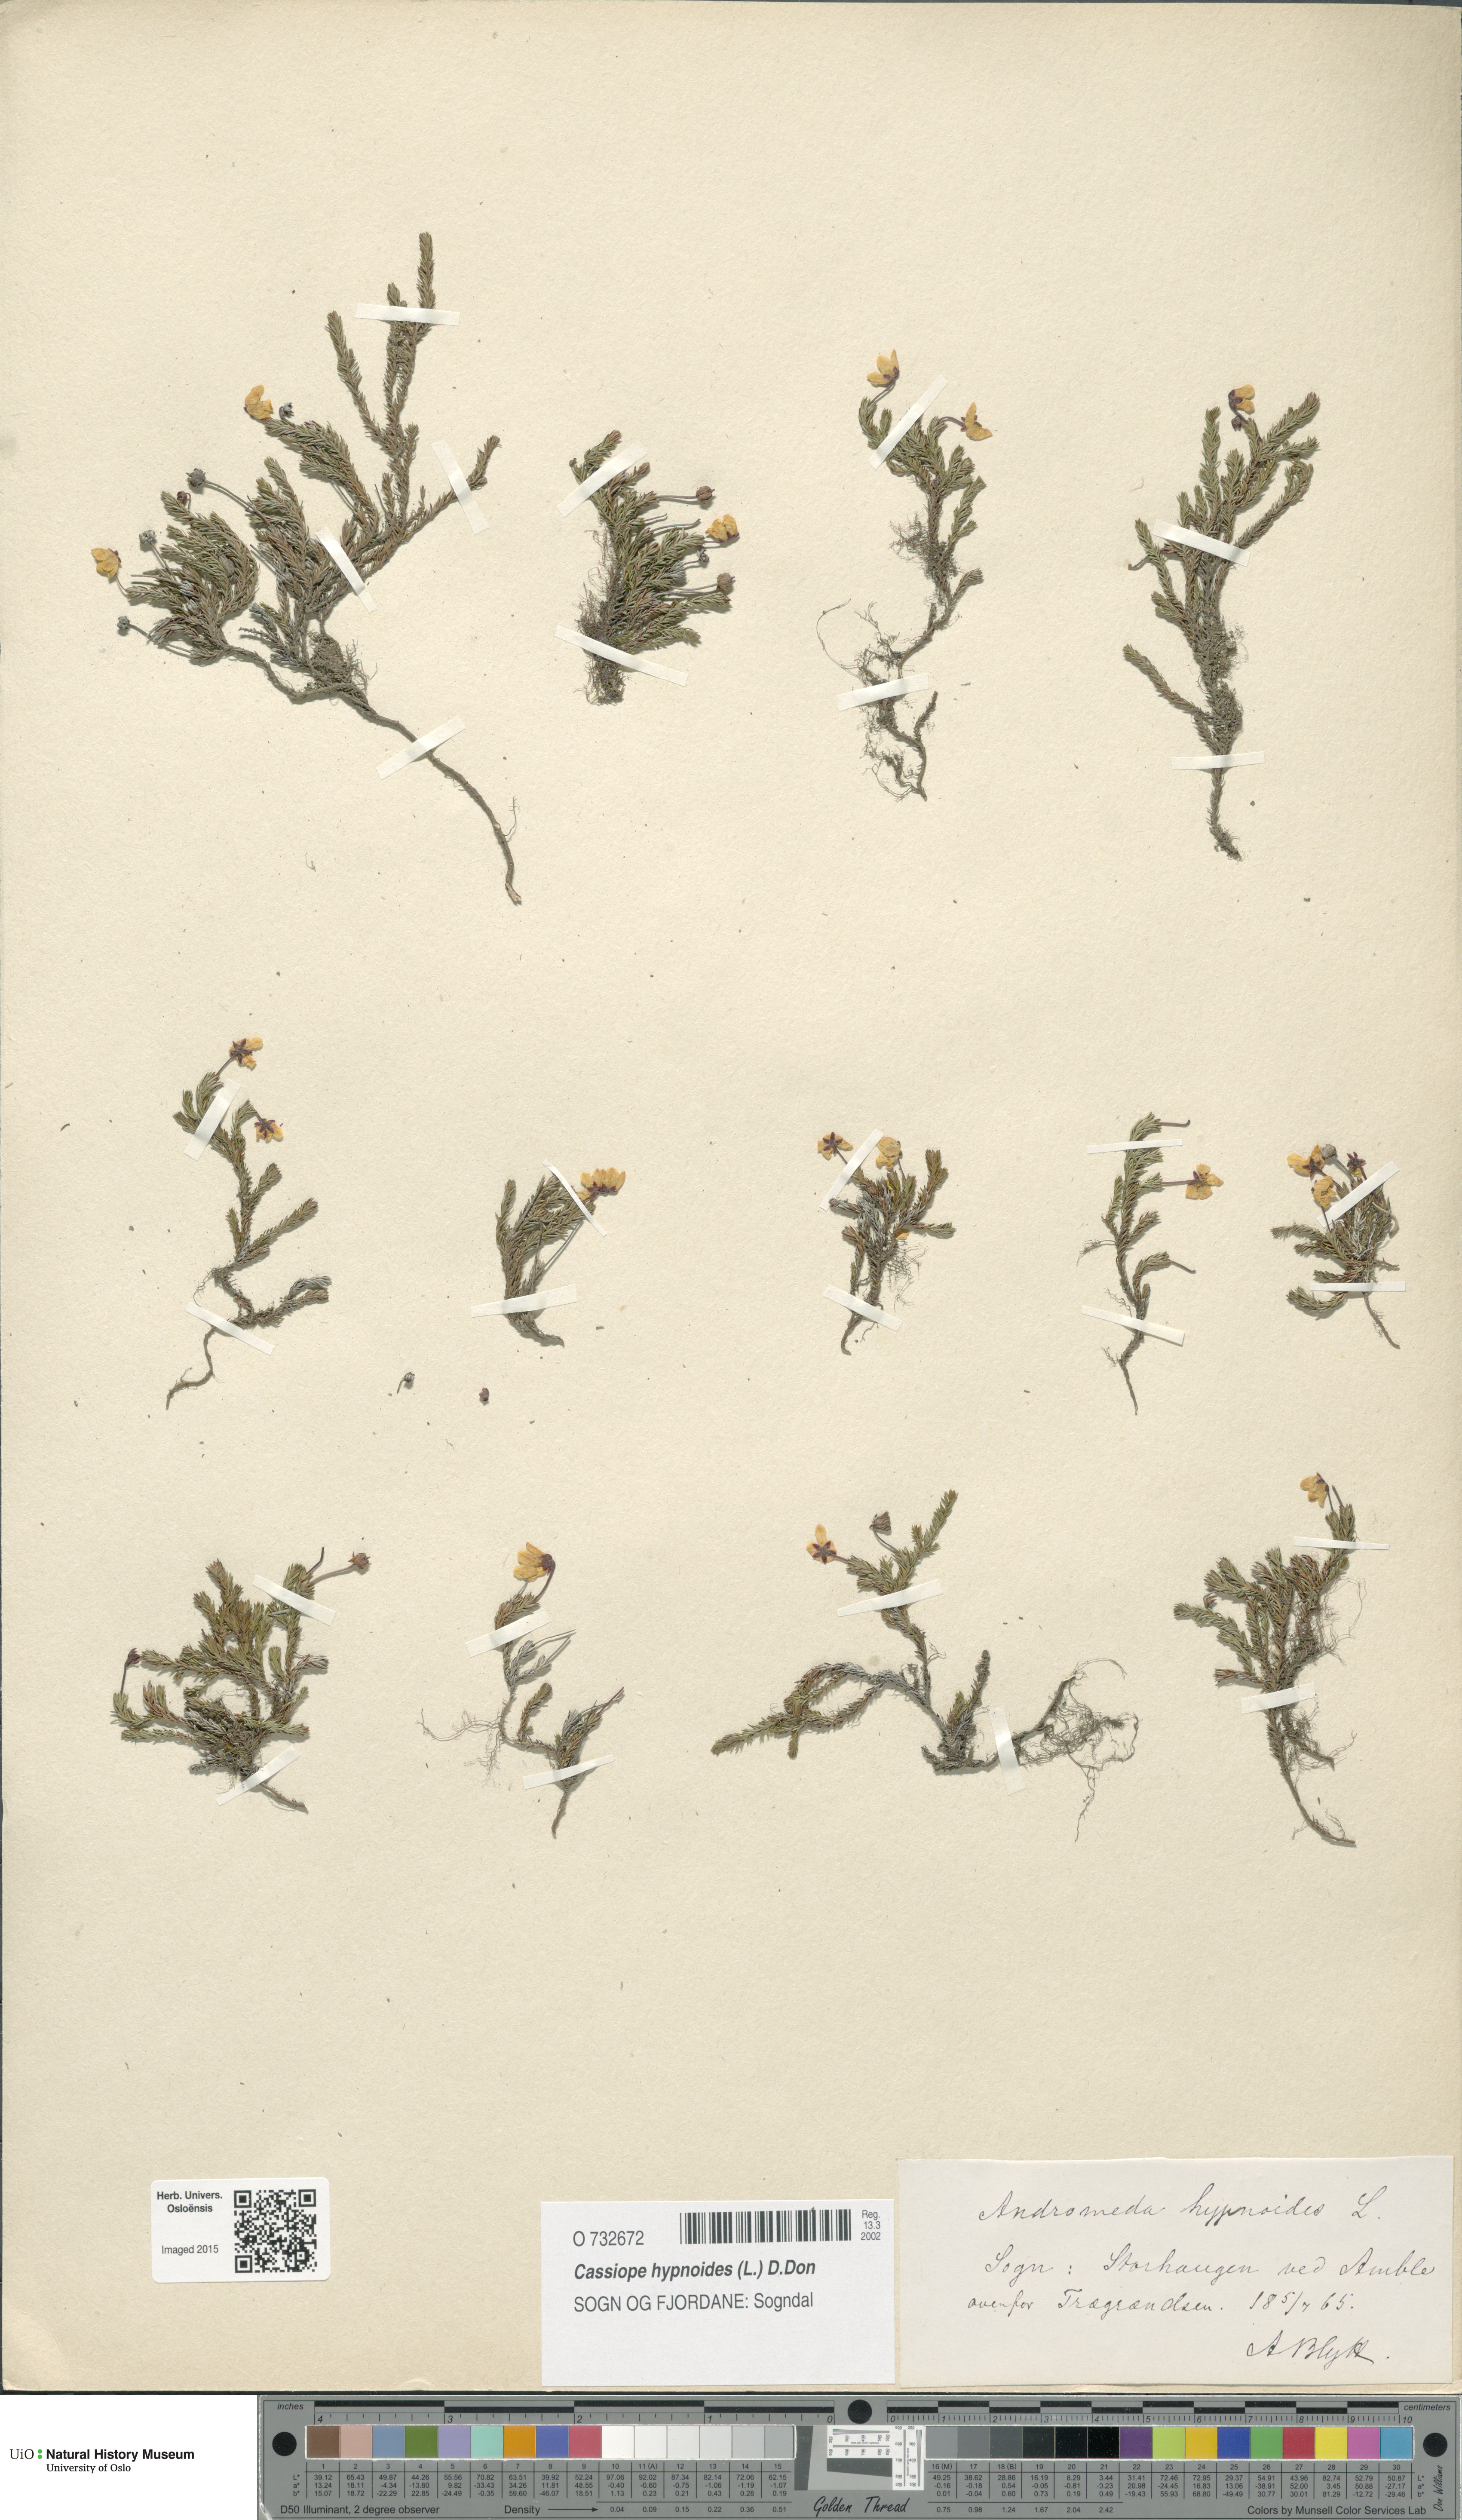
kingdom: Plantae
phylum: Tracheophyta
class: Magnoliopsida
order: Ericales
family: Ericaceae
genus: Harrimanella
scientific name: Harrimanella hypnoides
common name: Moss bell heather
